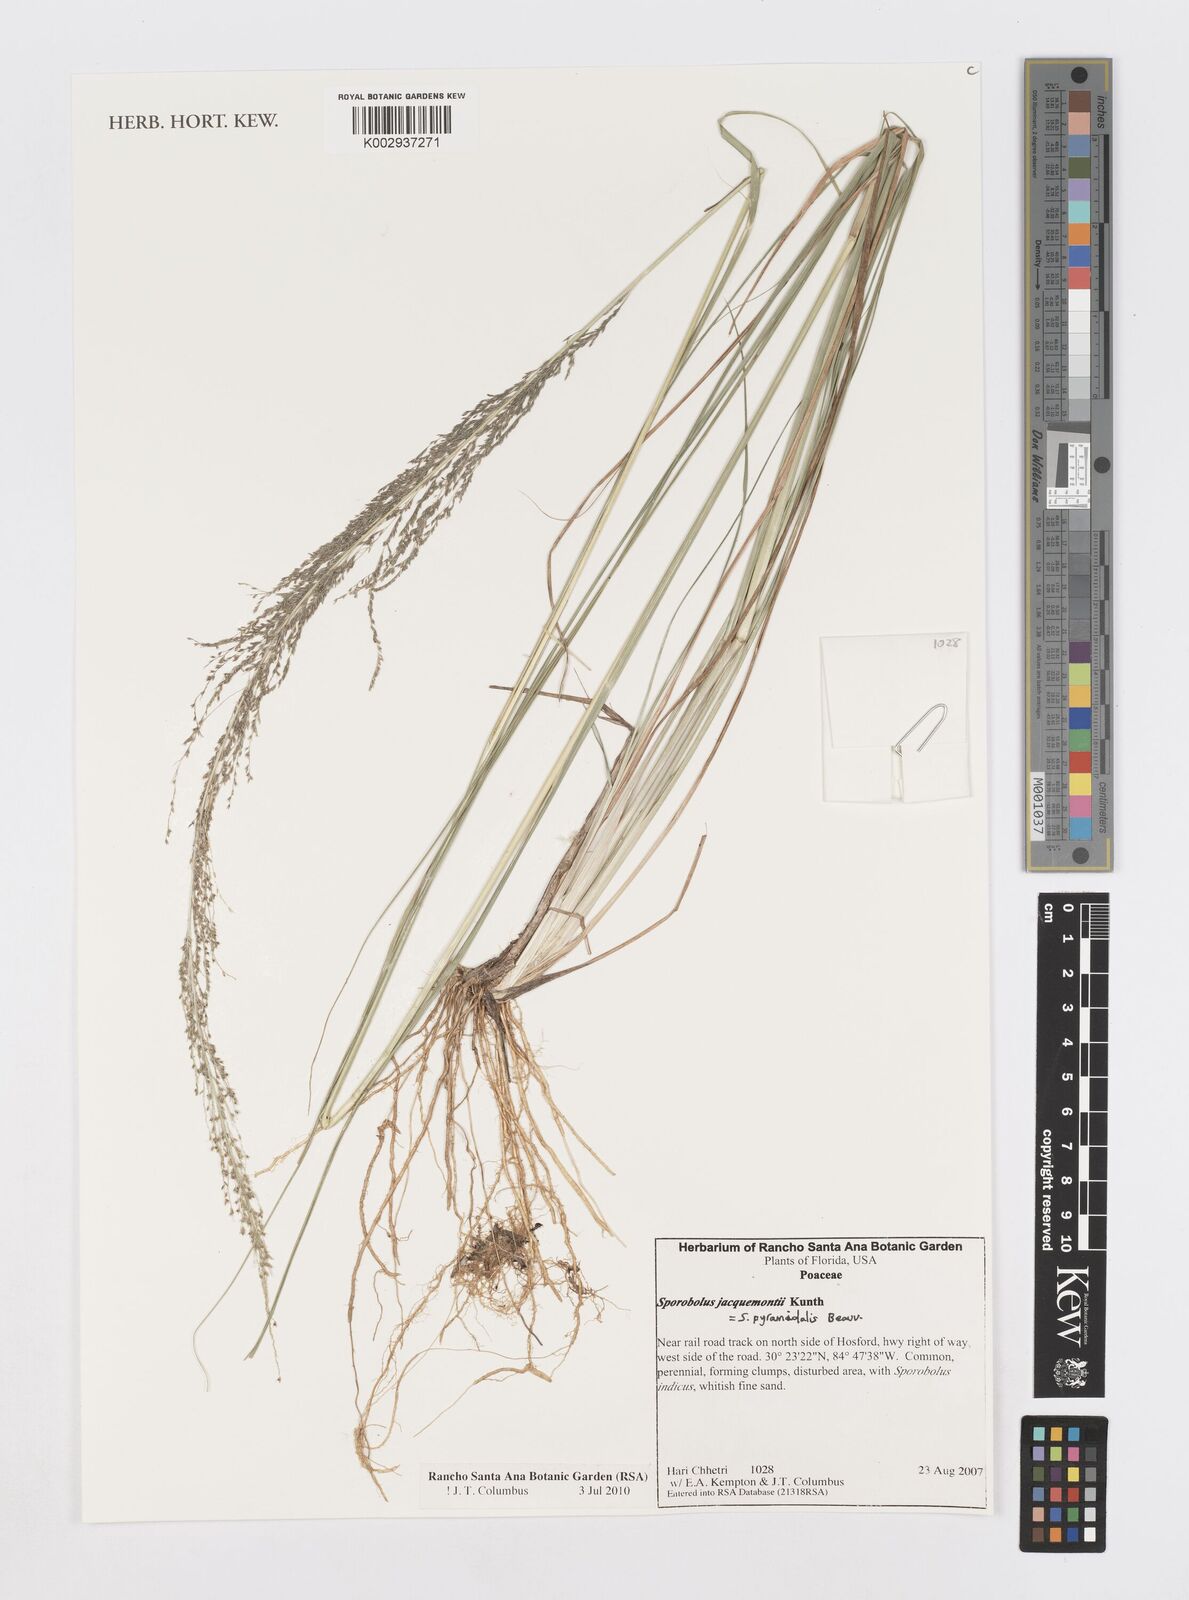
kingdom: Plantae
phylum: Tracheophyta
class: Liliopsida
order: Poales
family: Poaceae
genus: Sporobolus
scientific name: Sporobolus pyramidalis
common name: West indian dropseed
